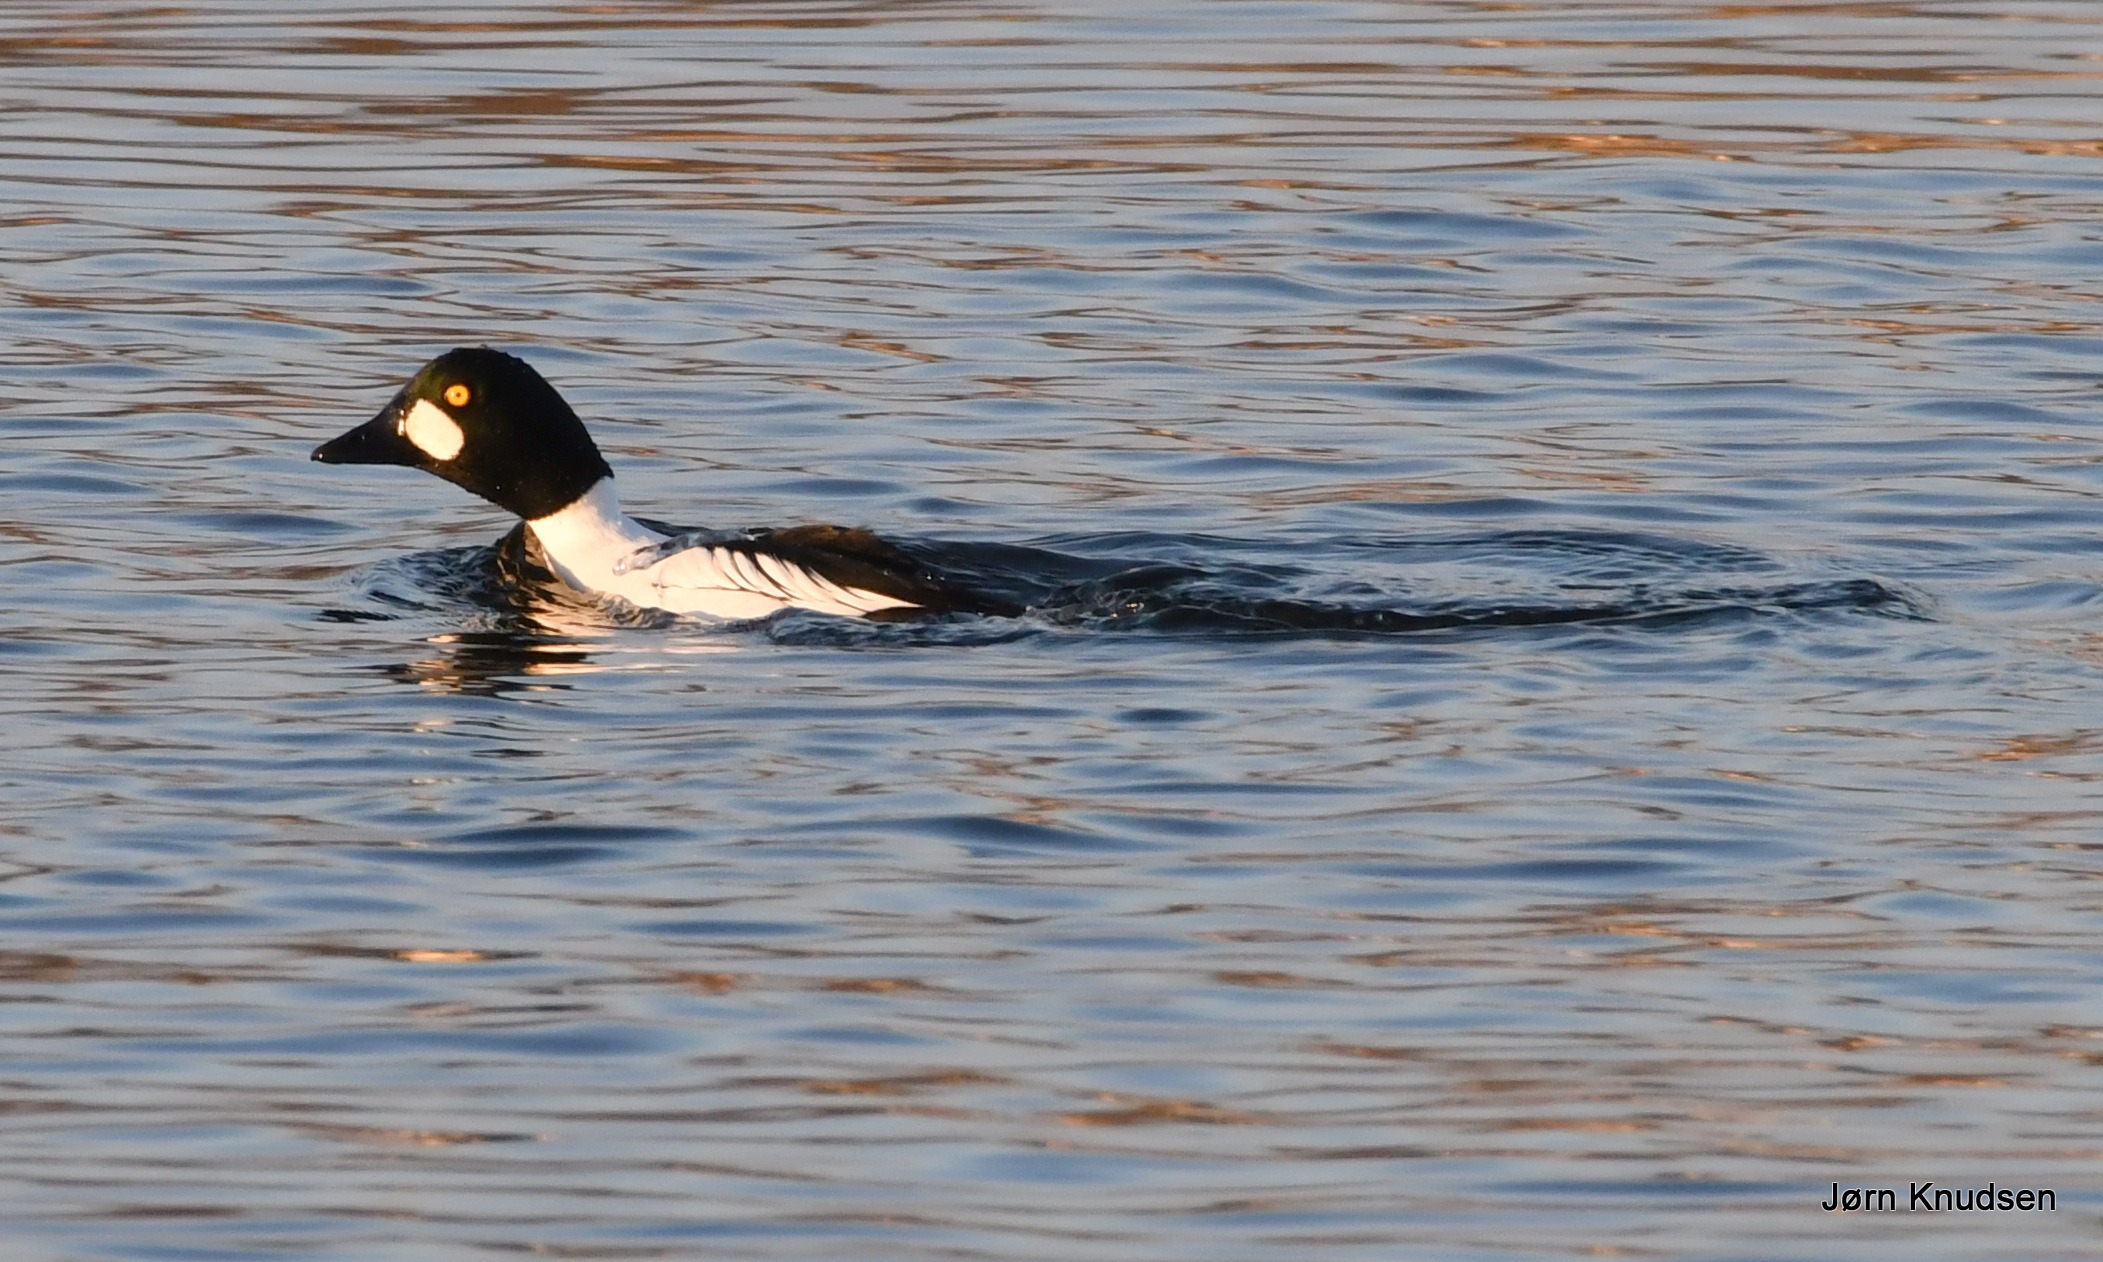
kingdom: Animalia
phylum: Chordata
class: Aves
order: Anseriformes
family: Anatidae
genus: Bucephala
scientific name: Bucephala clangula
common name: Hvinand
